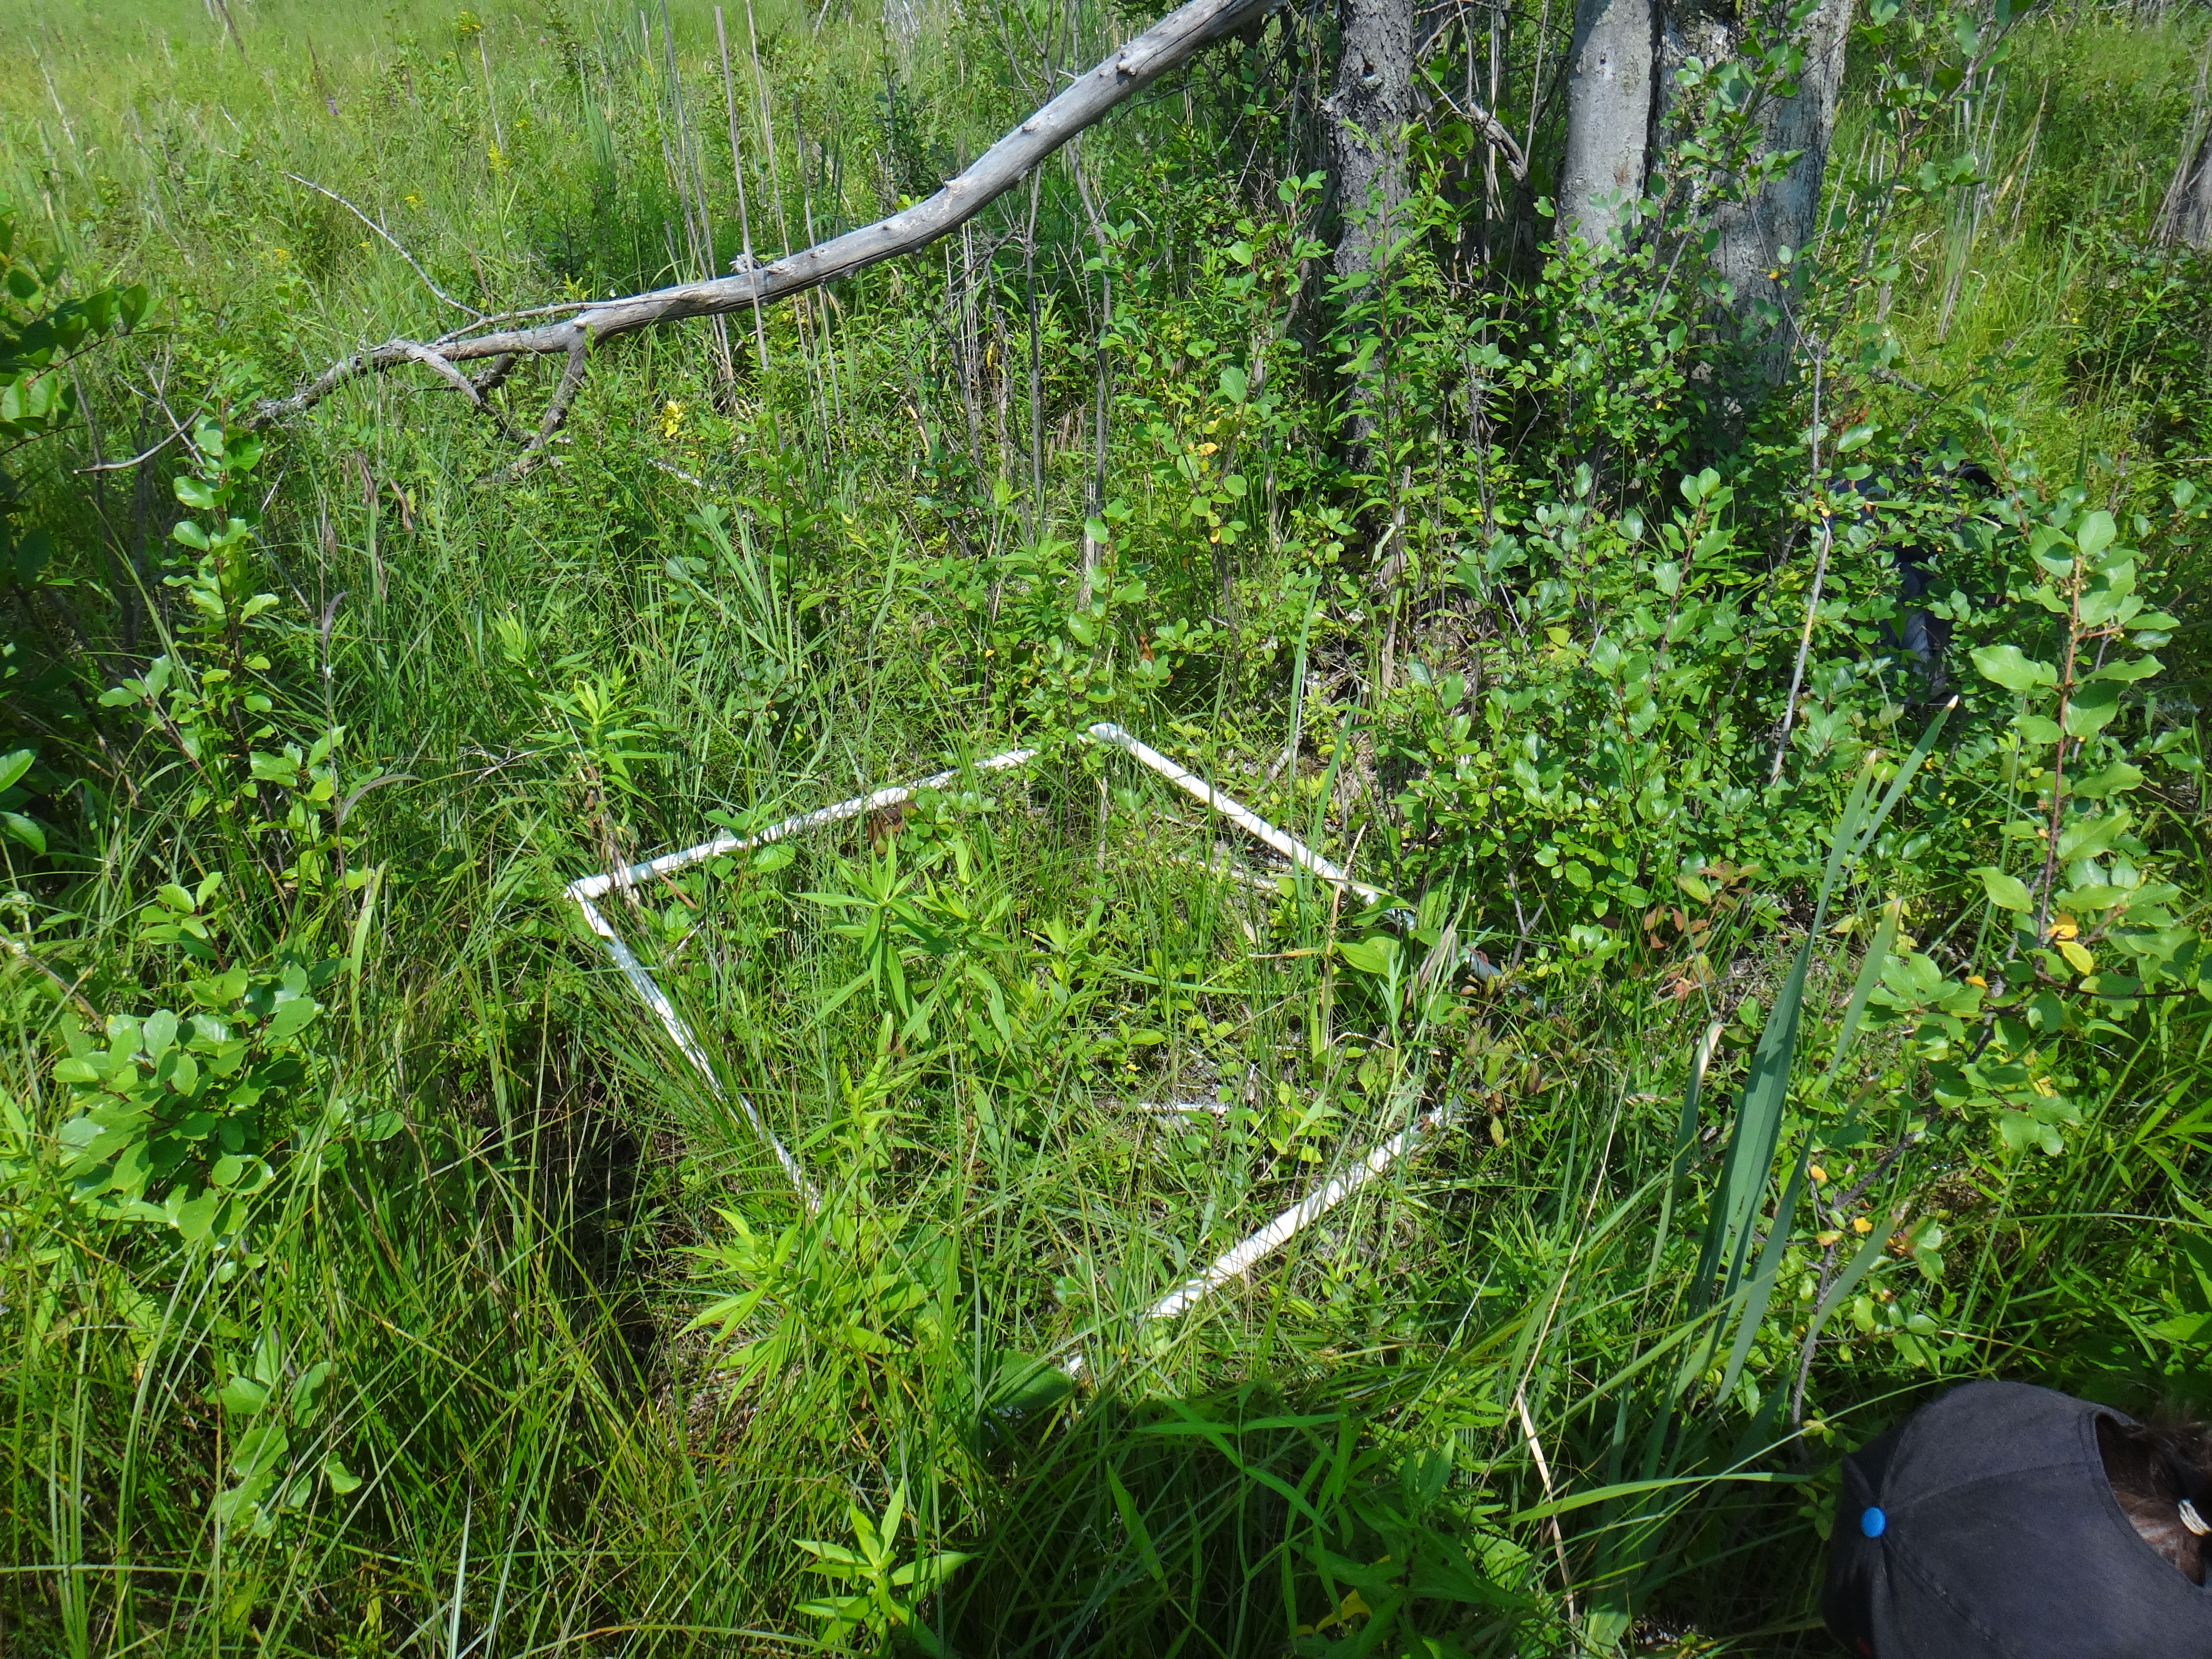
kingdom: Plantae
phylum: Tracheophyta
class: Magnoliopsida
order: Asterales
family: Asteraceae
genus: Symphyotrichum
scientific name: Symphyotrichum lateriflorum
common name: Calico aster
